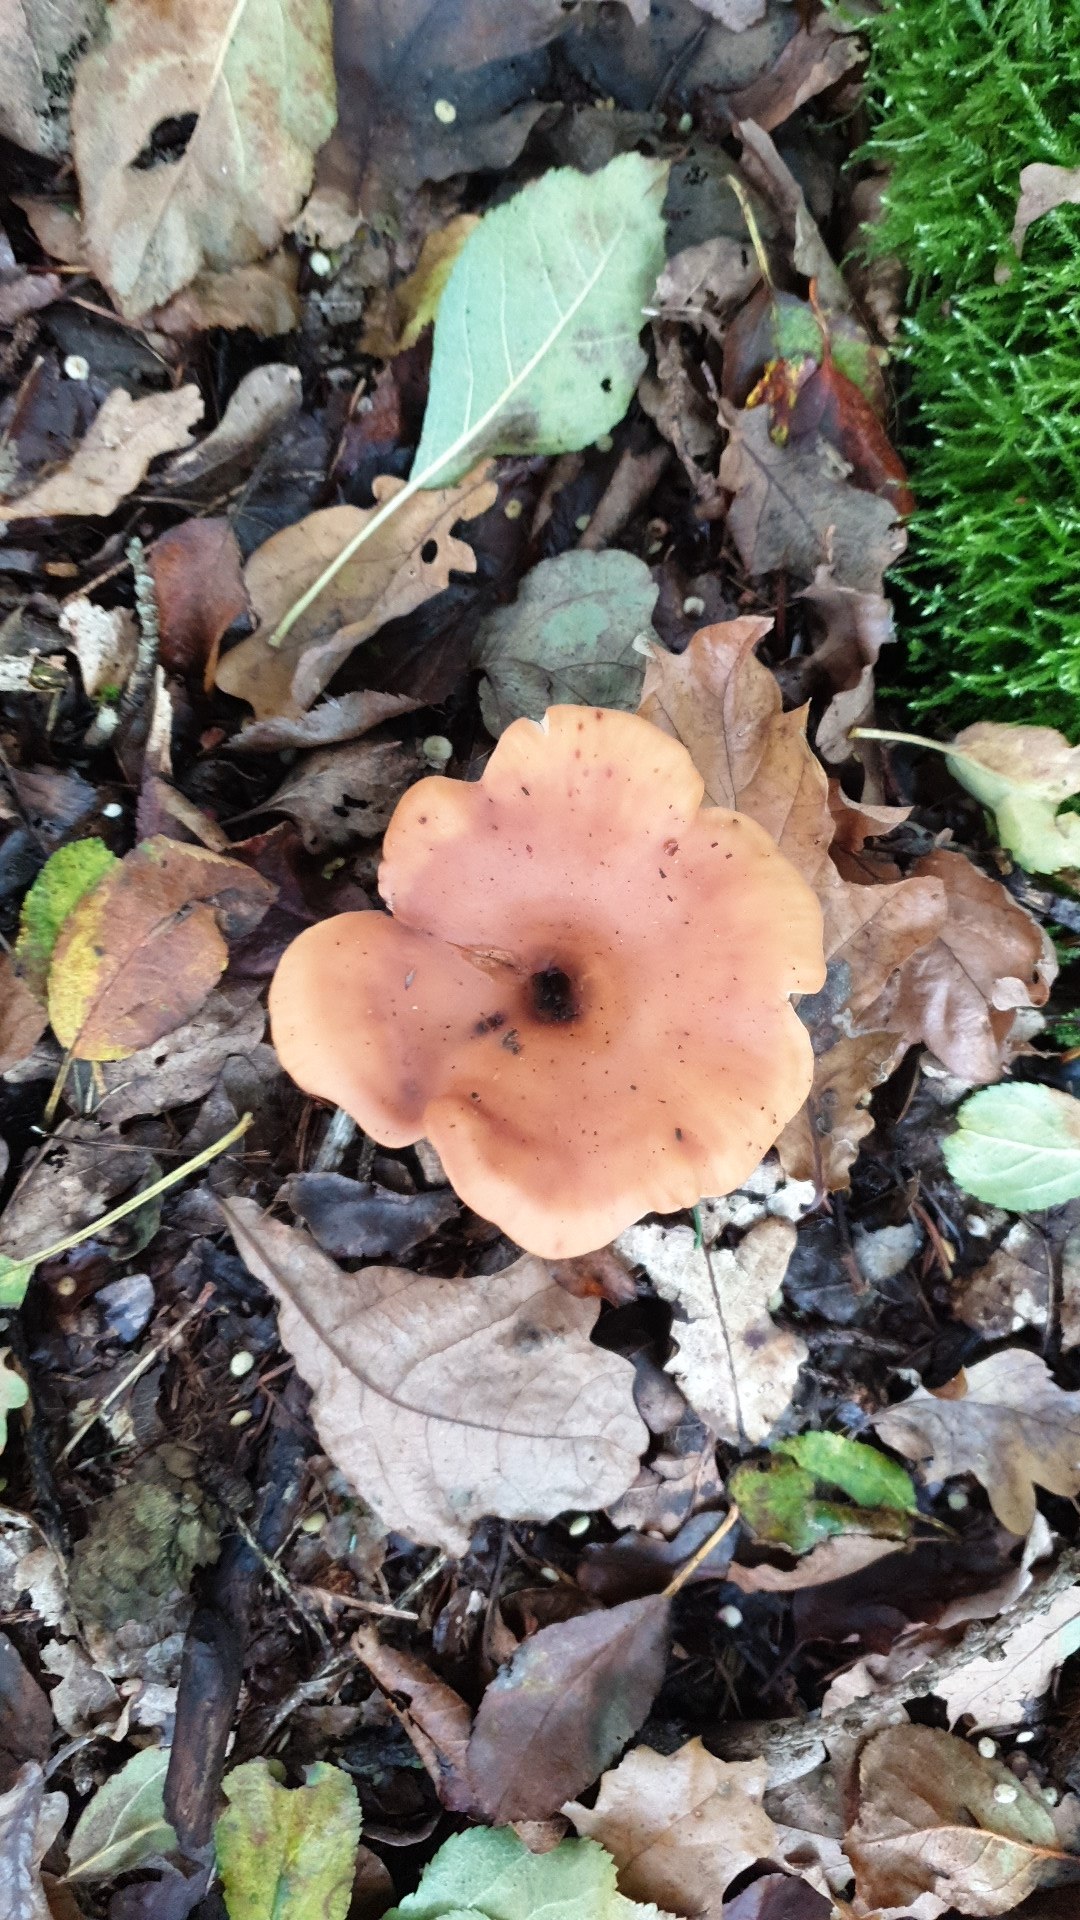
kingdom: Fungi
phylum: Basidiomycota
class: Agaricomycetes
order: Agaricales
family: Tricholomataceae
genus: Paralepista
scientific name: Paralepista flaccida
